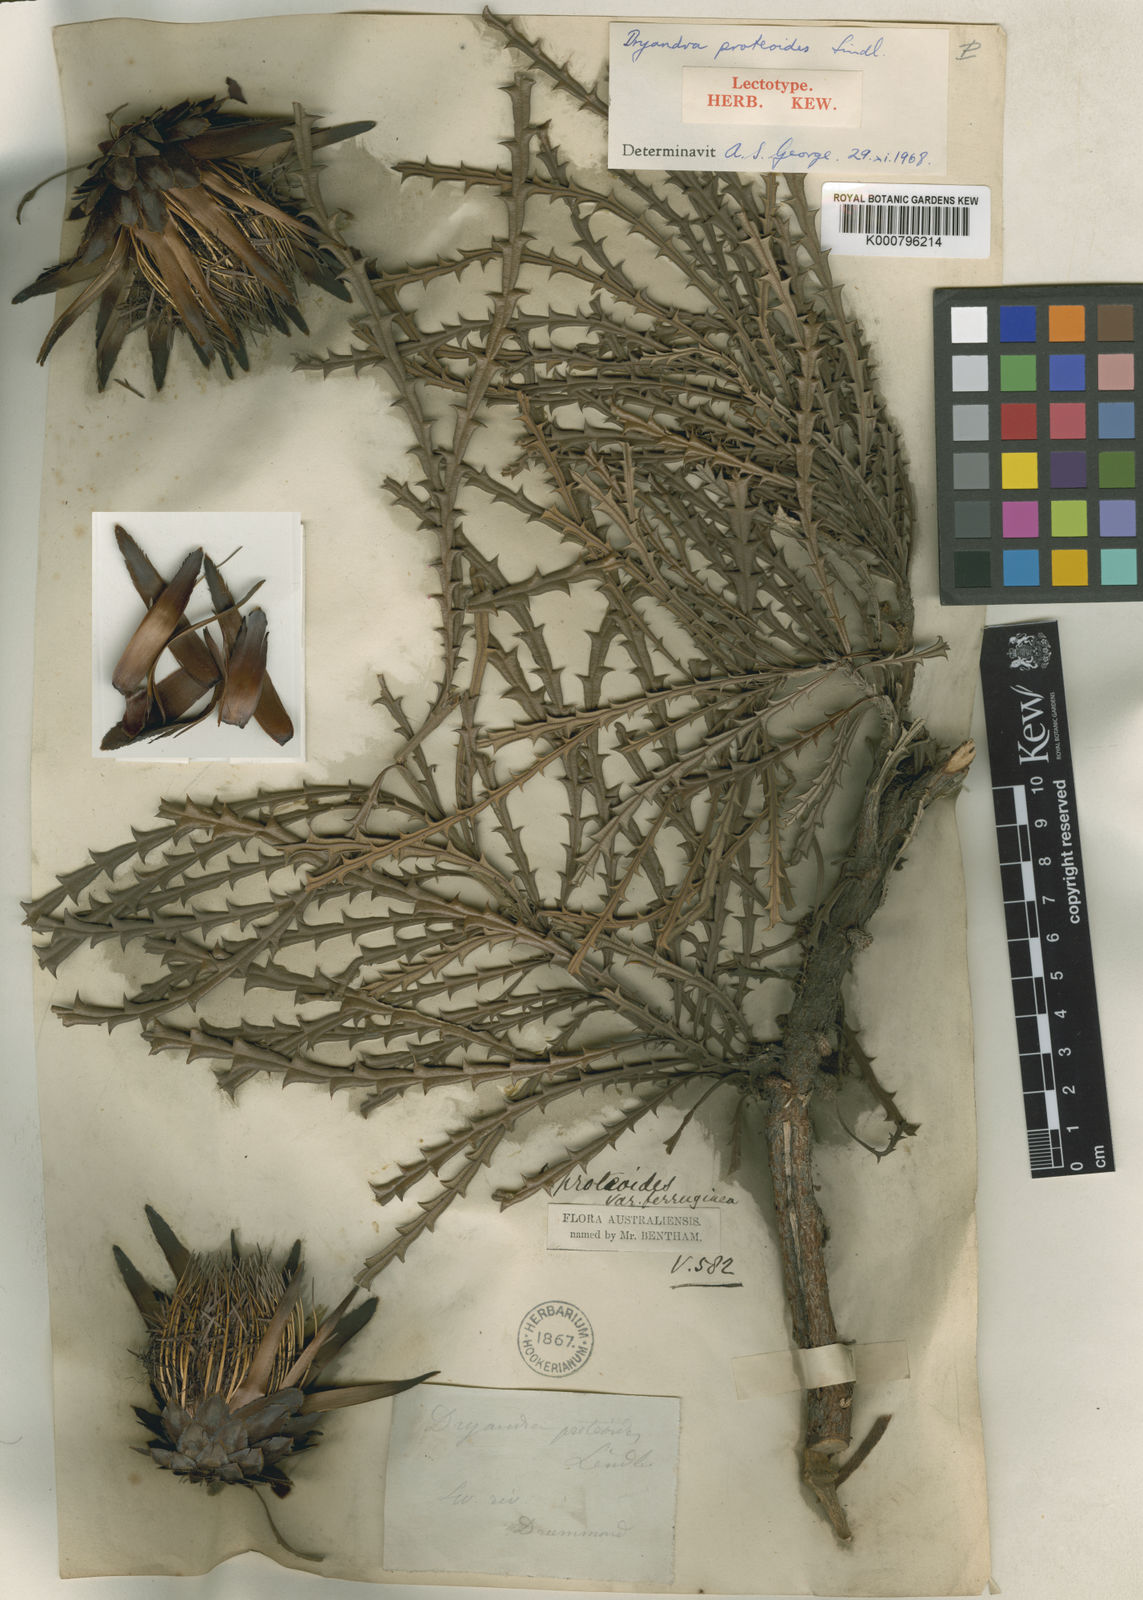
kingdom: Plantae
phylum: Tracheophyta
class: Magnoliopsida
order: Proteales
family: Proteaceae
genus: Banksia
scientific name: Banksia proteoides
